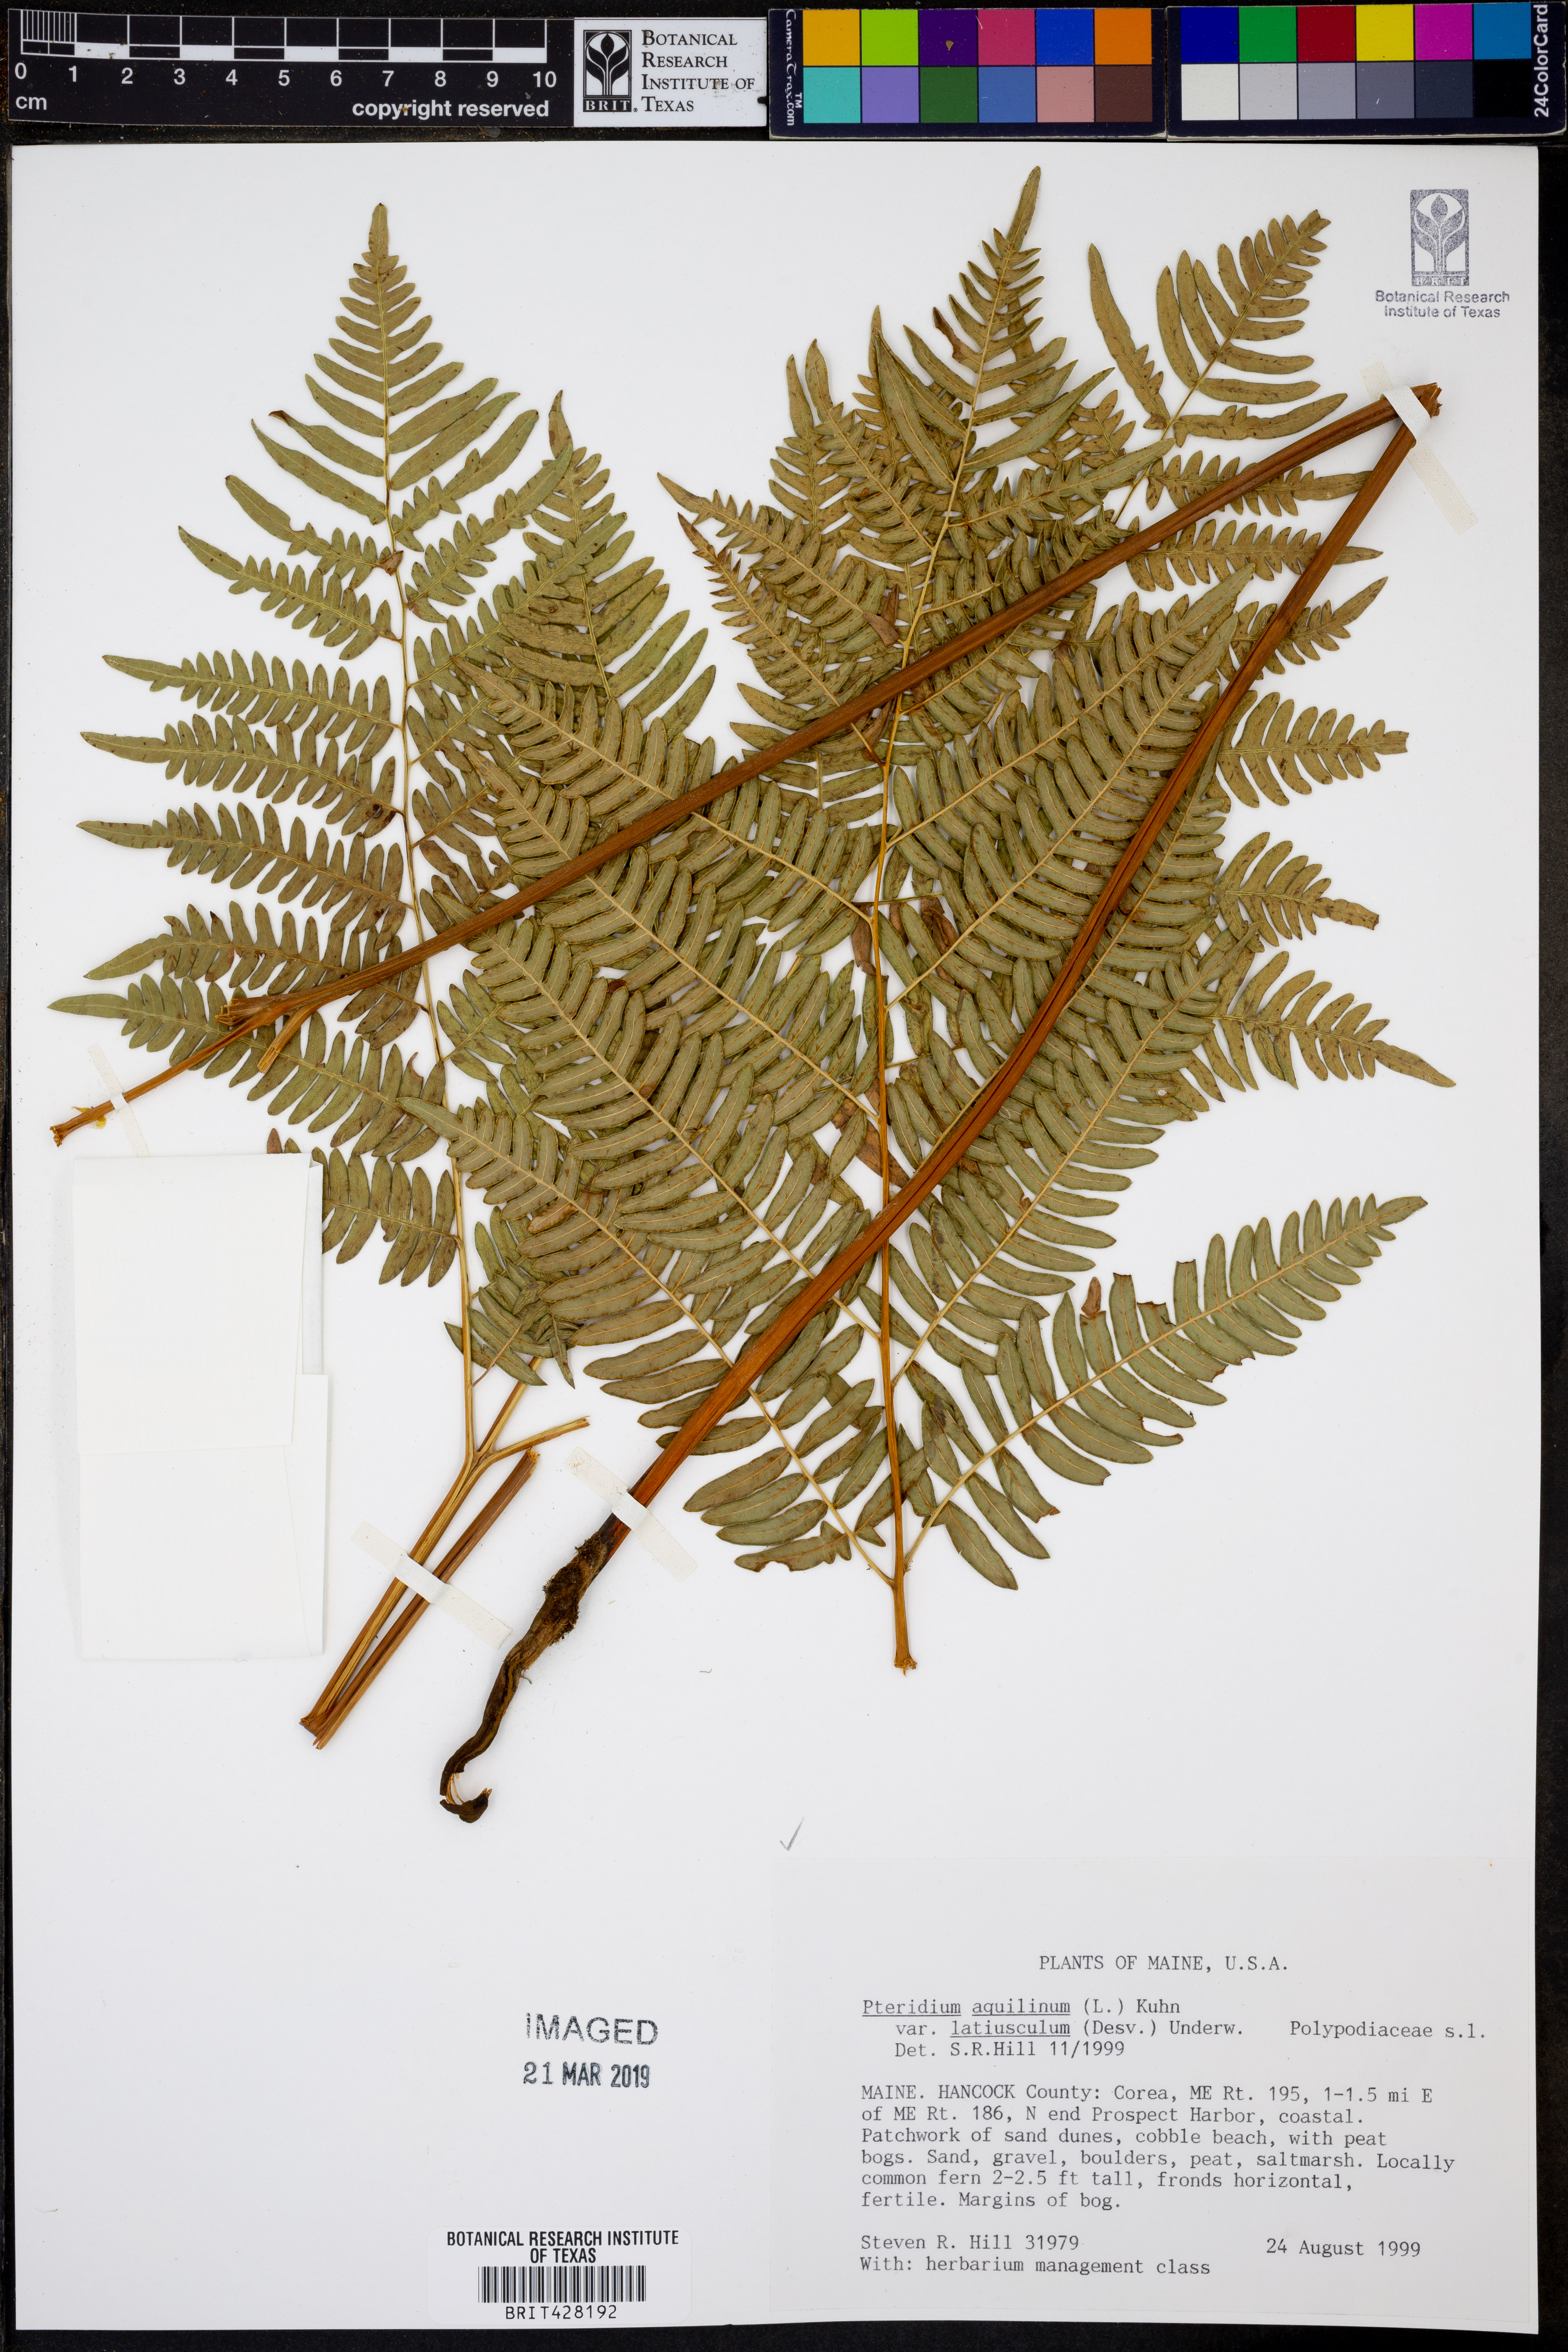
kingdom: Plantae
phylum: Tracheophyta
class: Polypodiopsida
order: Polypodiales
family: Dennstaedtiaceae
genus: Pteridium
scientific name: Pteridium aquilinum
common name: Bracken
